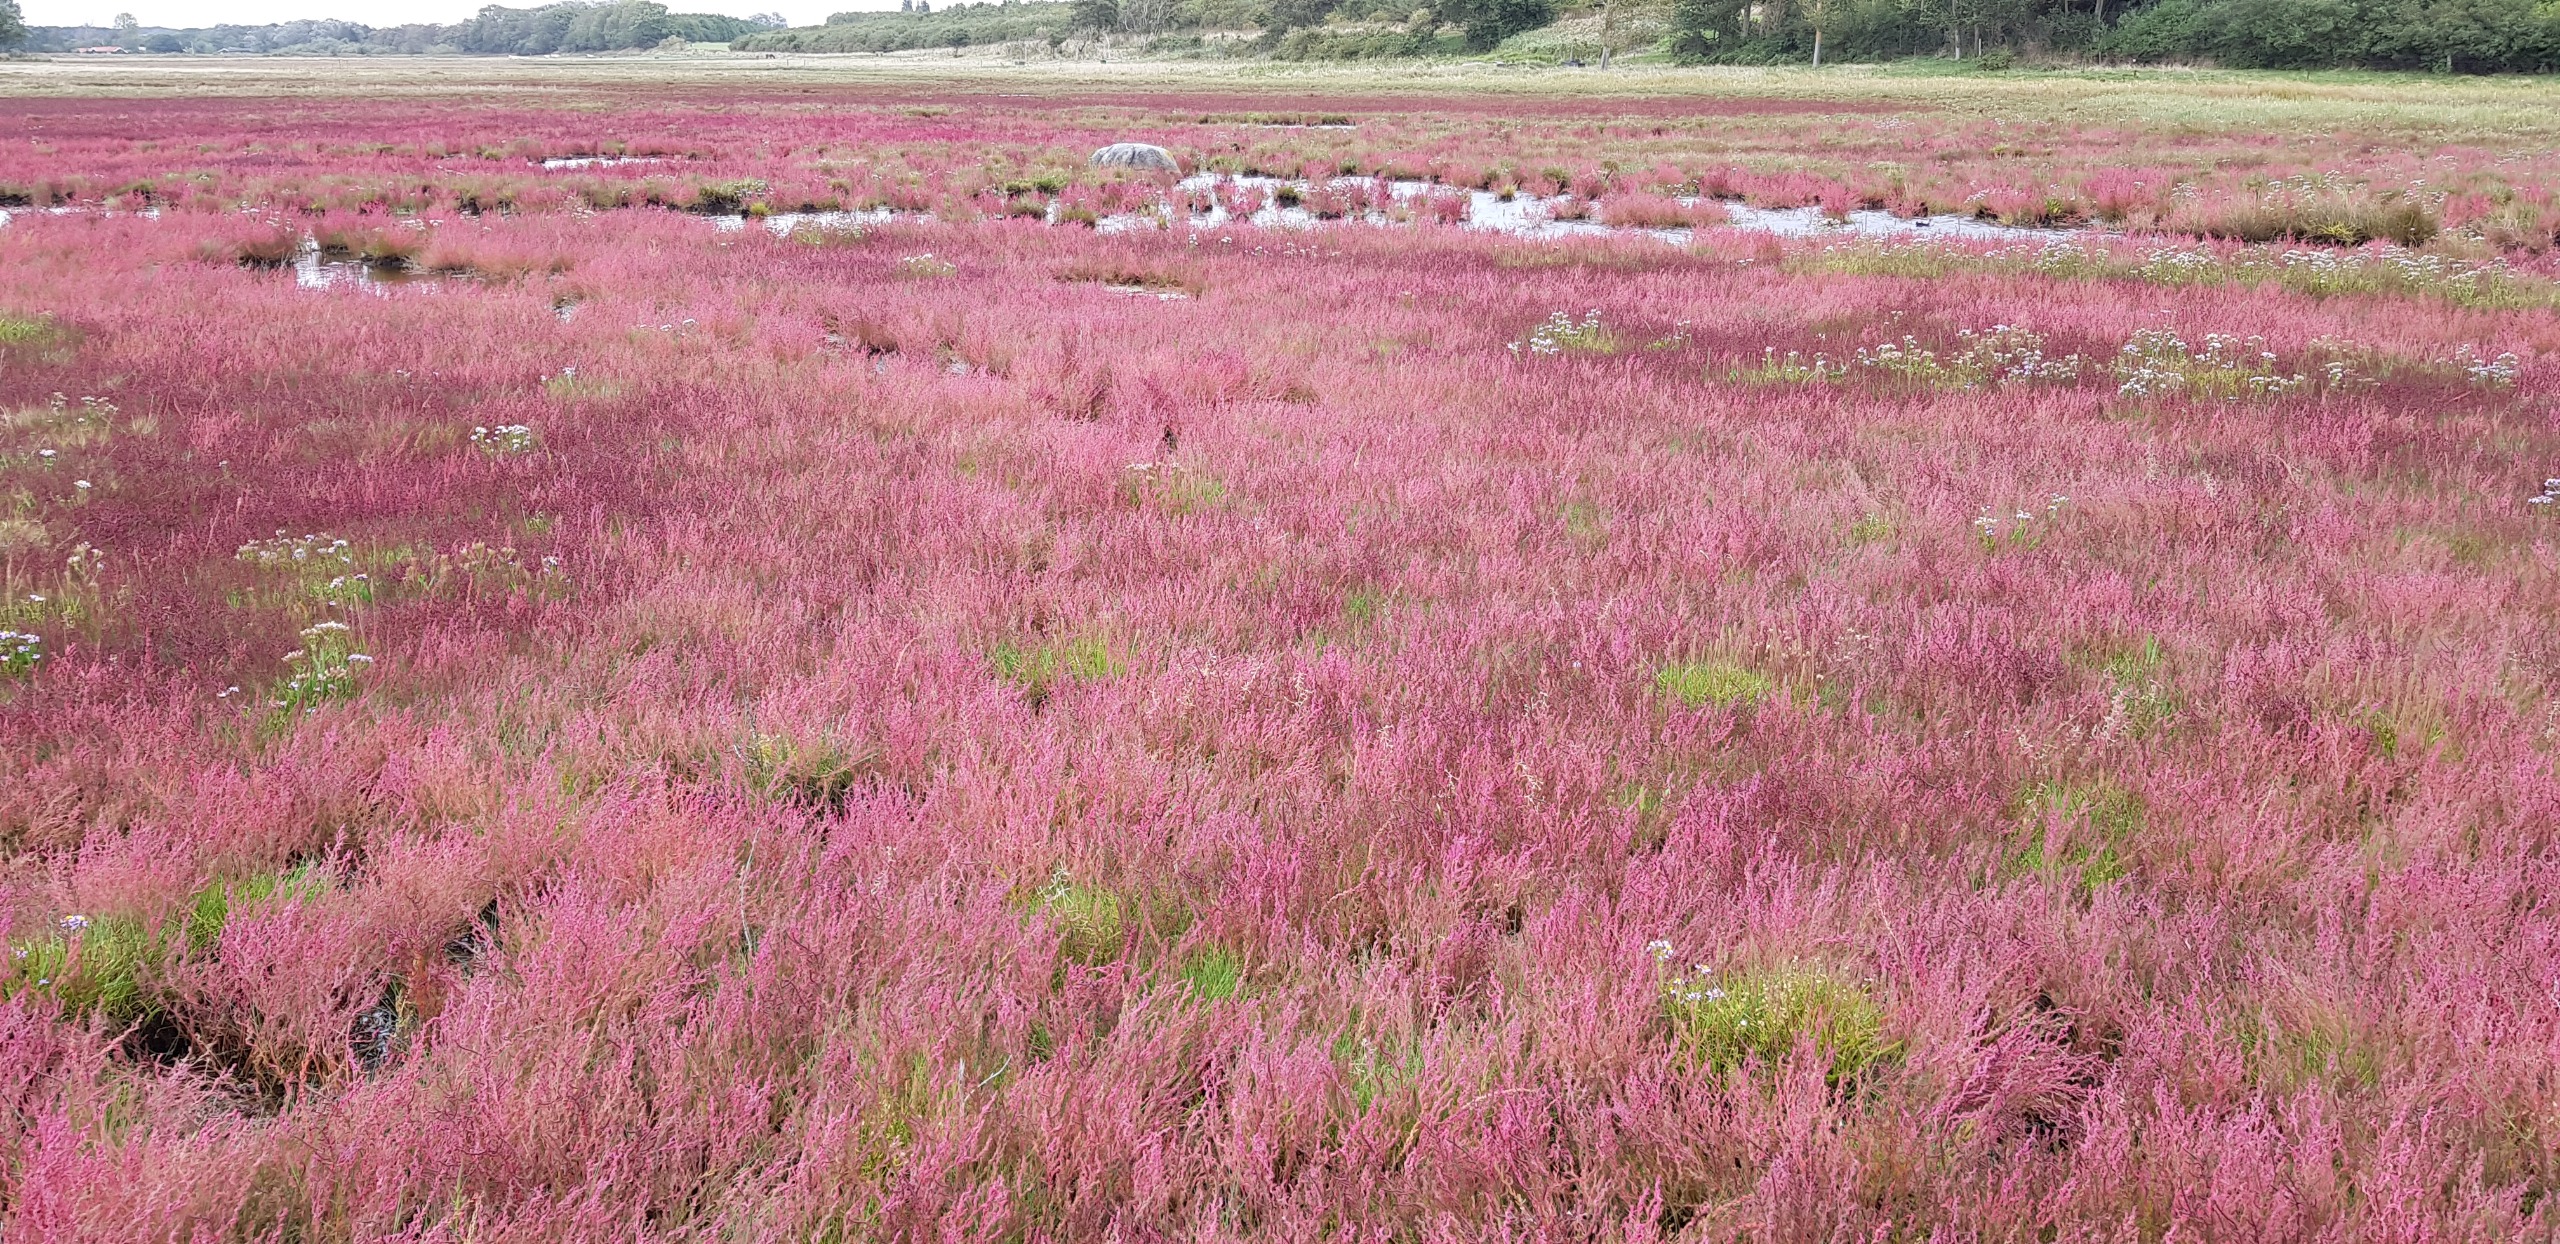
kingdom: Plantae
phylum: Tracheophyta
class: Magnoliopsida
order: Caryophyllales
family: Amaranthaceae
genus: Spirobassia
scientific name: Spirobassia hirsuta
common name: Tangurt
